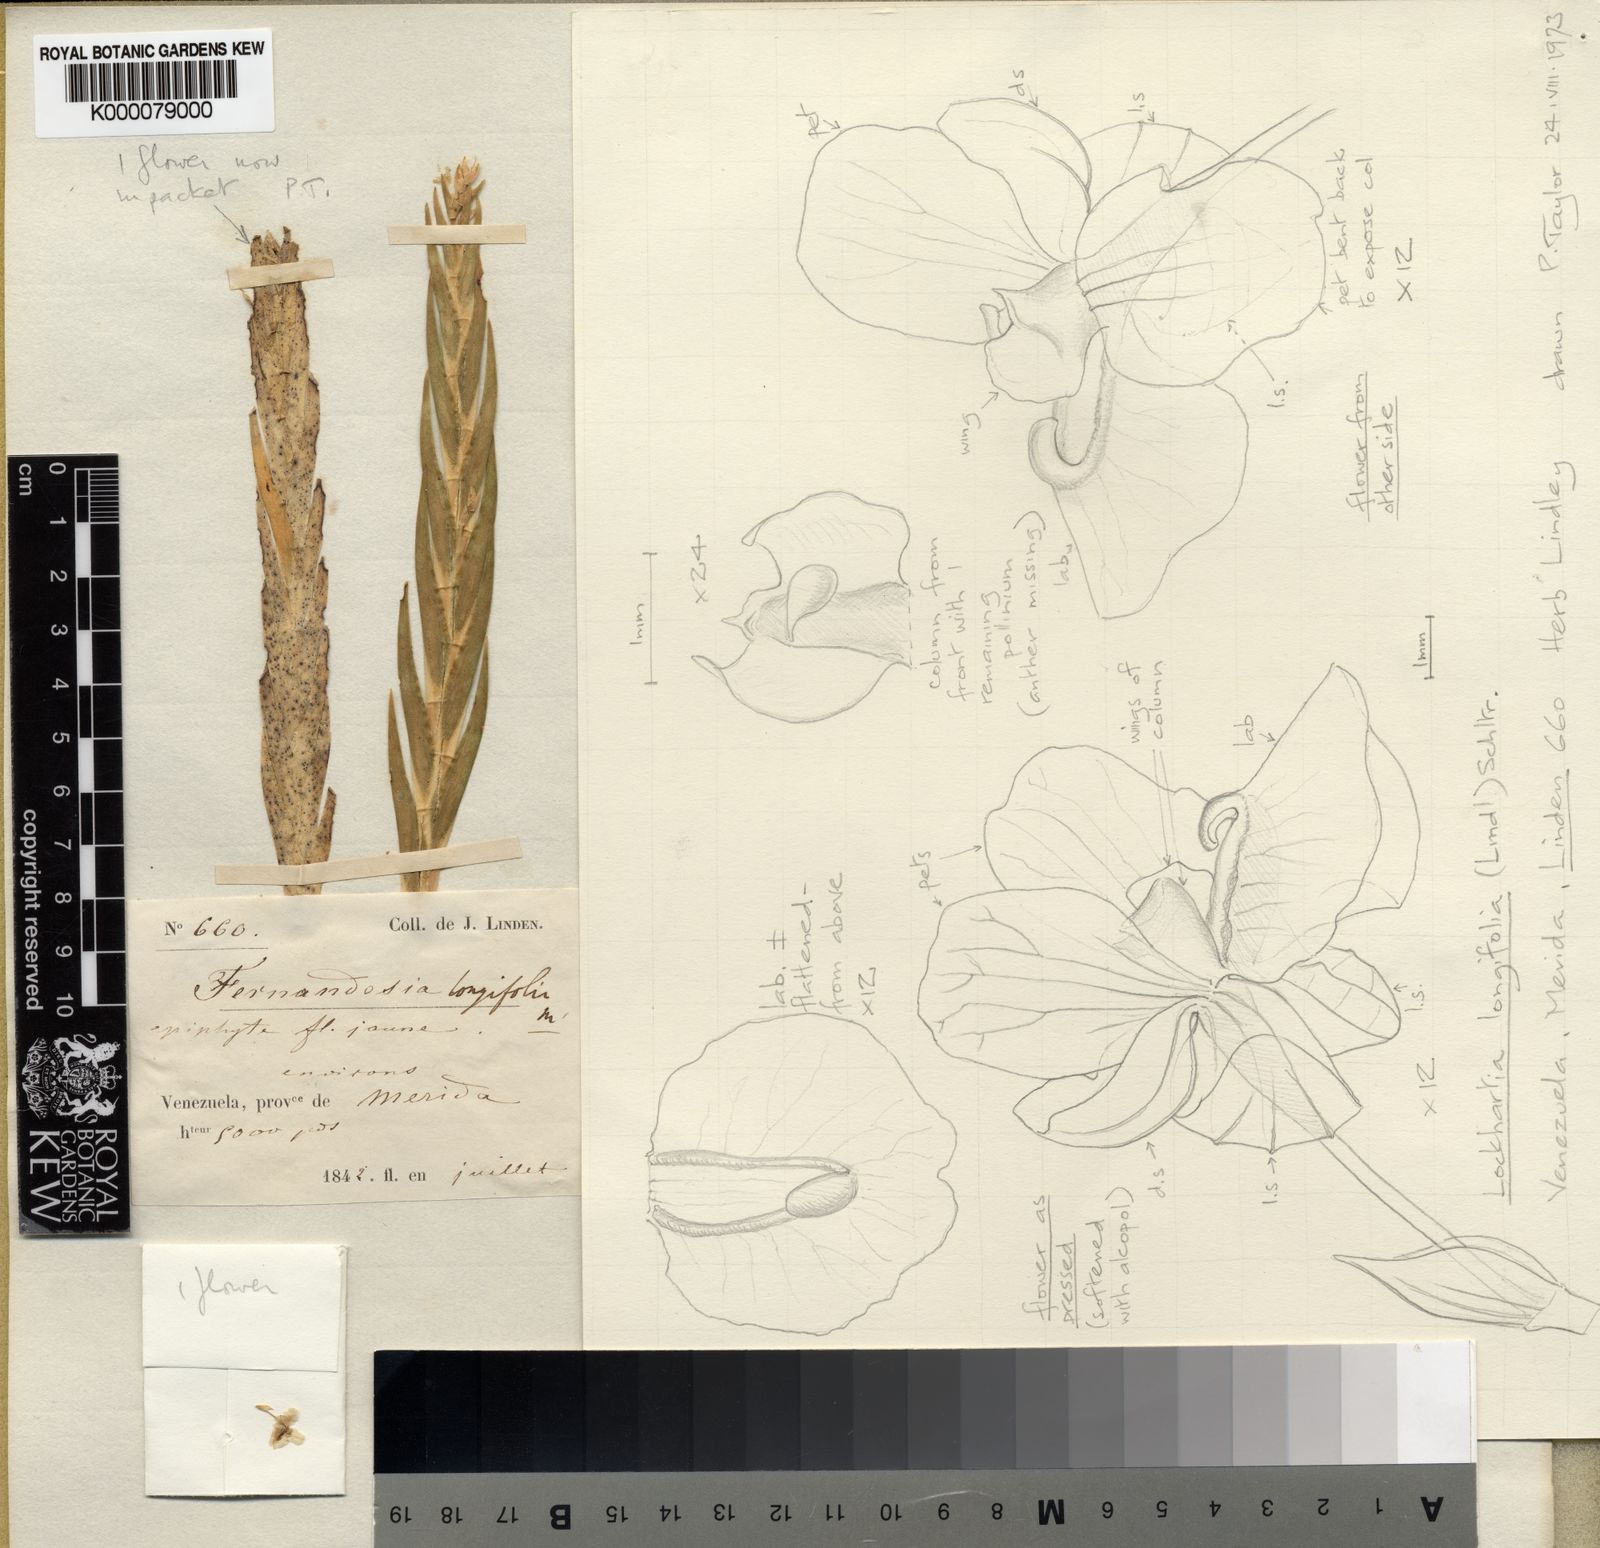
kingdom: Plantae
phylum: Tracheophyta
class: Liliopsida
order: Asparagales
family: Orchidaceae
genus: Lockhartia
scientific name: Lockhartia longifolia
